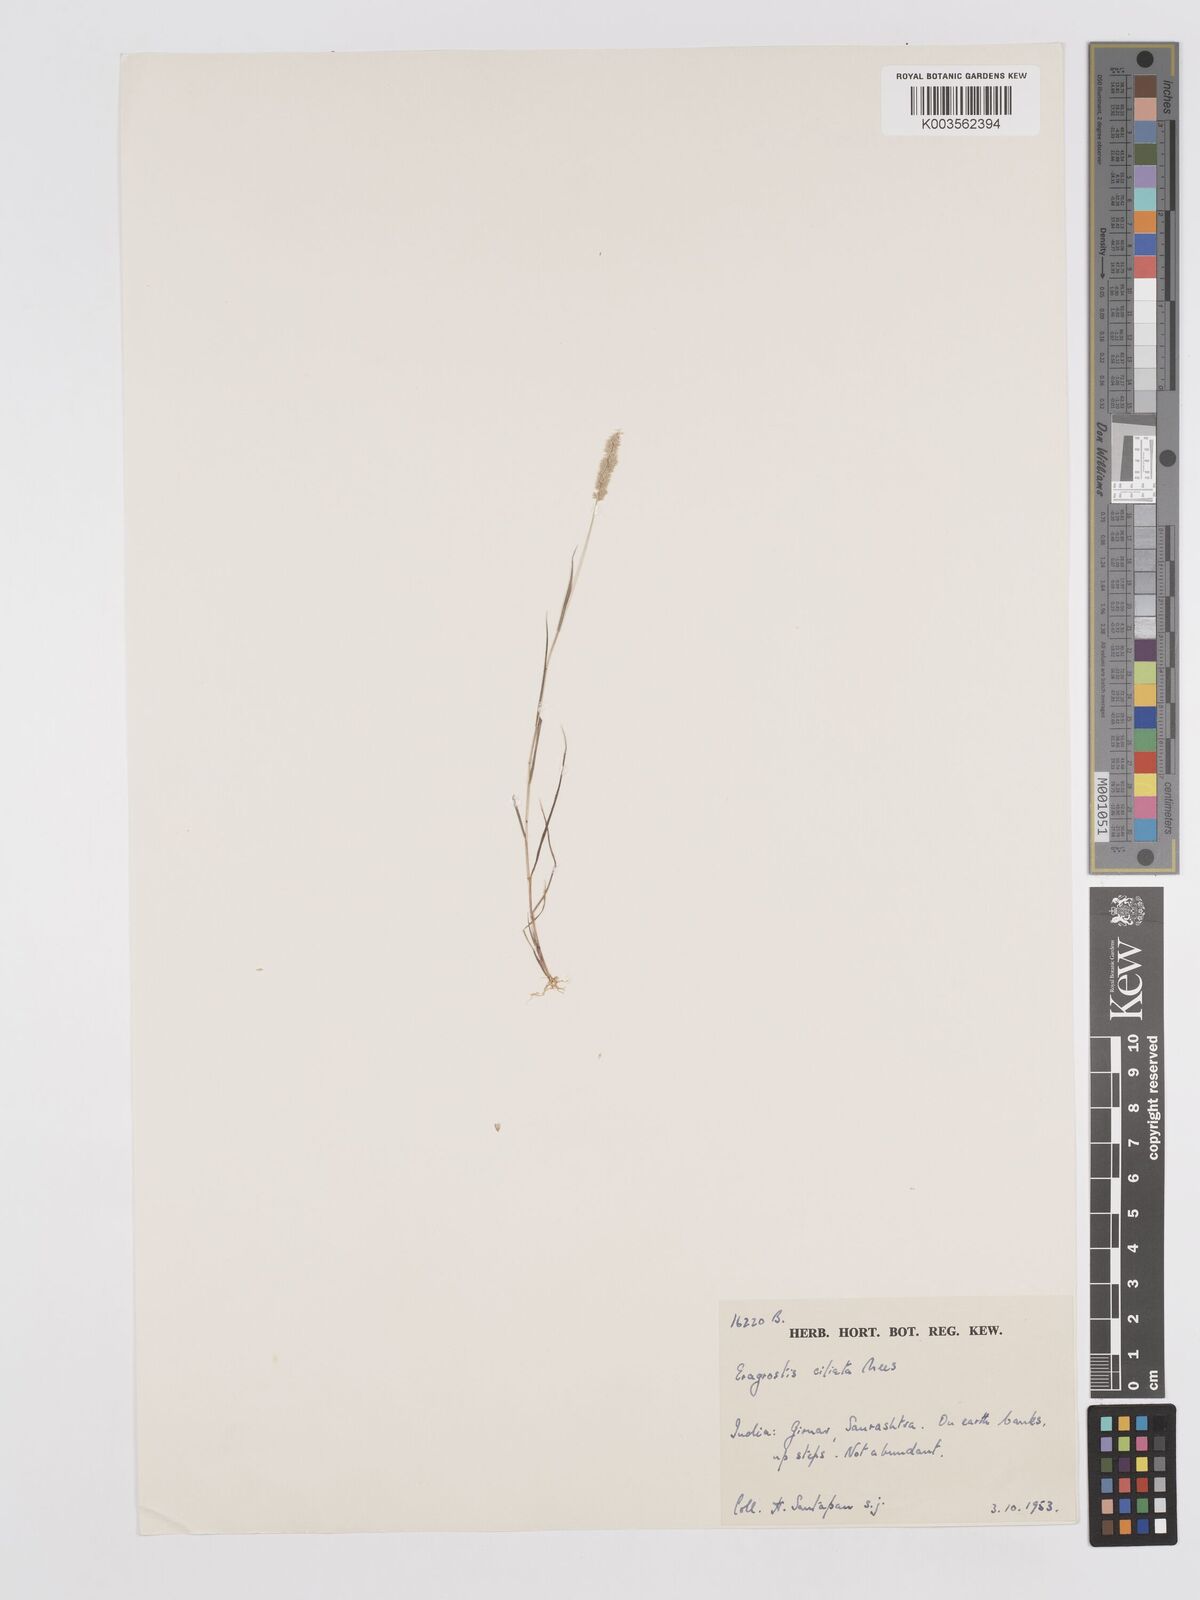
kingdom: Plantae
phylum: Tracheophyta
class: Liliopsida
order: Poales
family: Poaceae
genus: Eragrostis
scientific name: Eragrostis ciliata
